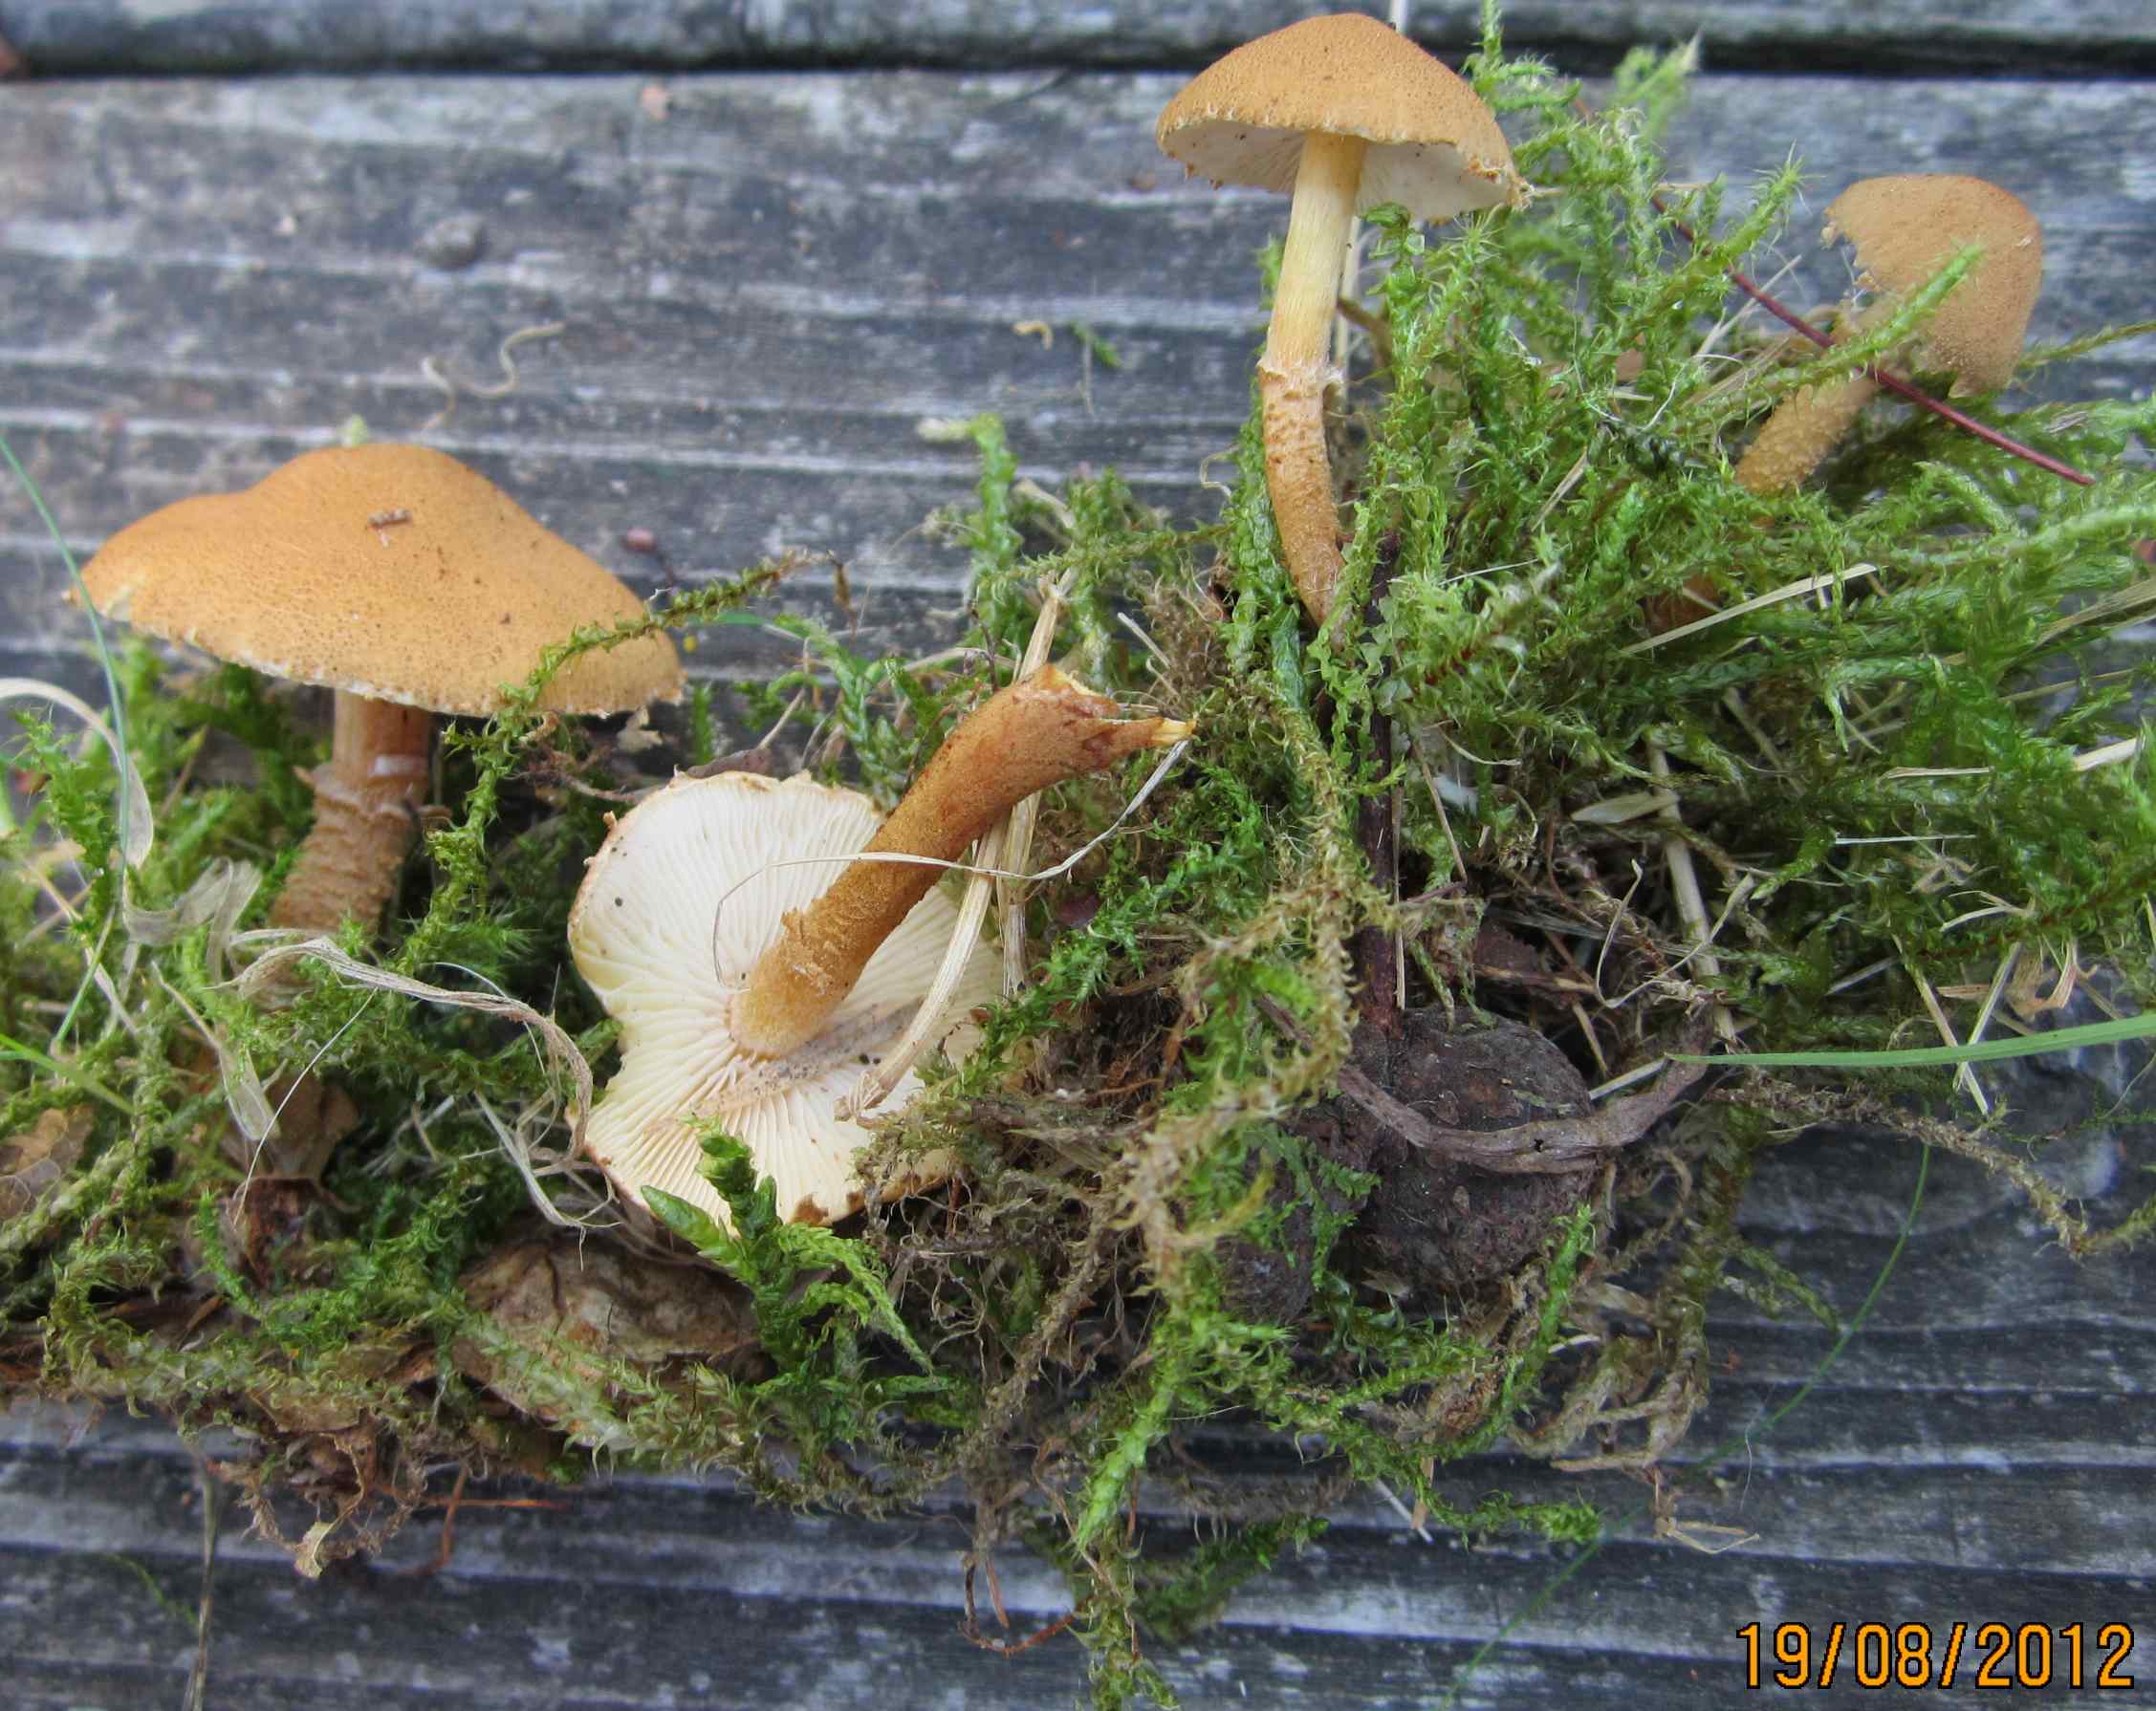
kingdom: Fungi
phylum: Basidiomycota
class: Agaricomycetes
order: Agaricales
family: Tricholomataceae
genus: Cystoderma
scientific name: Cystoderma amianthinum
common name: okkergul grynhat
